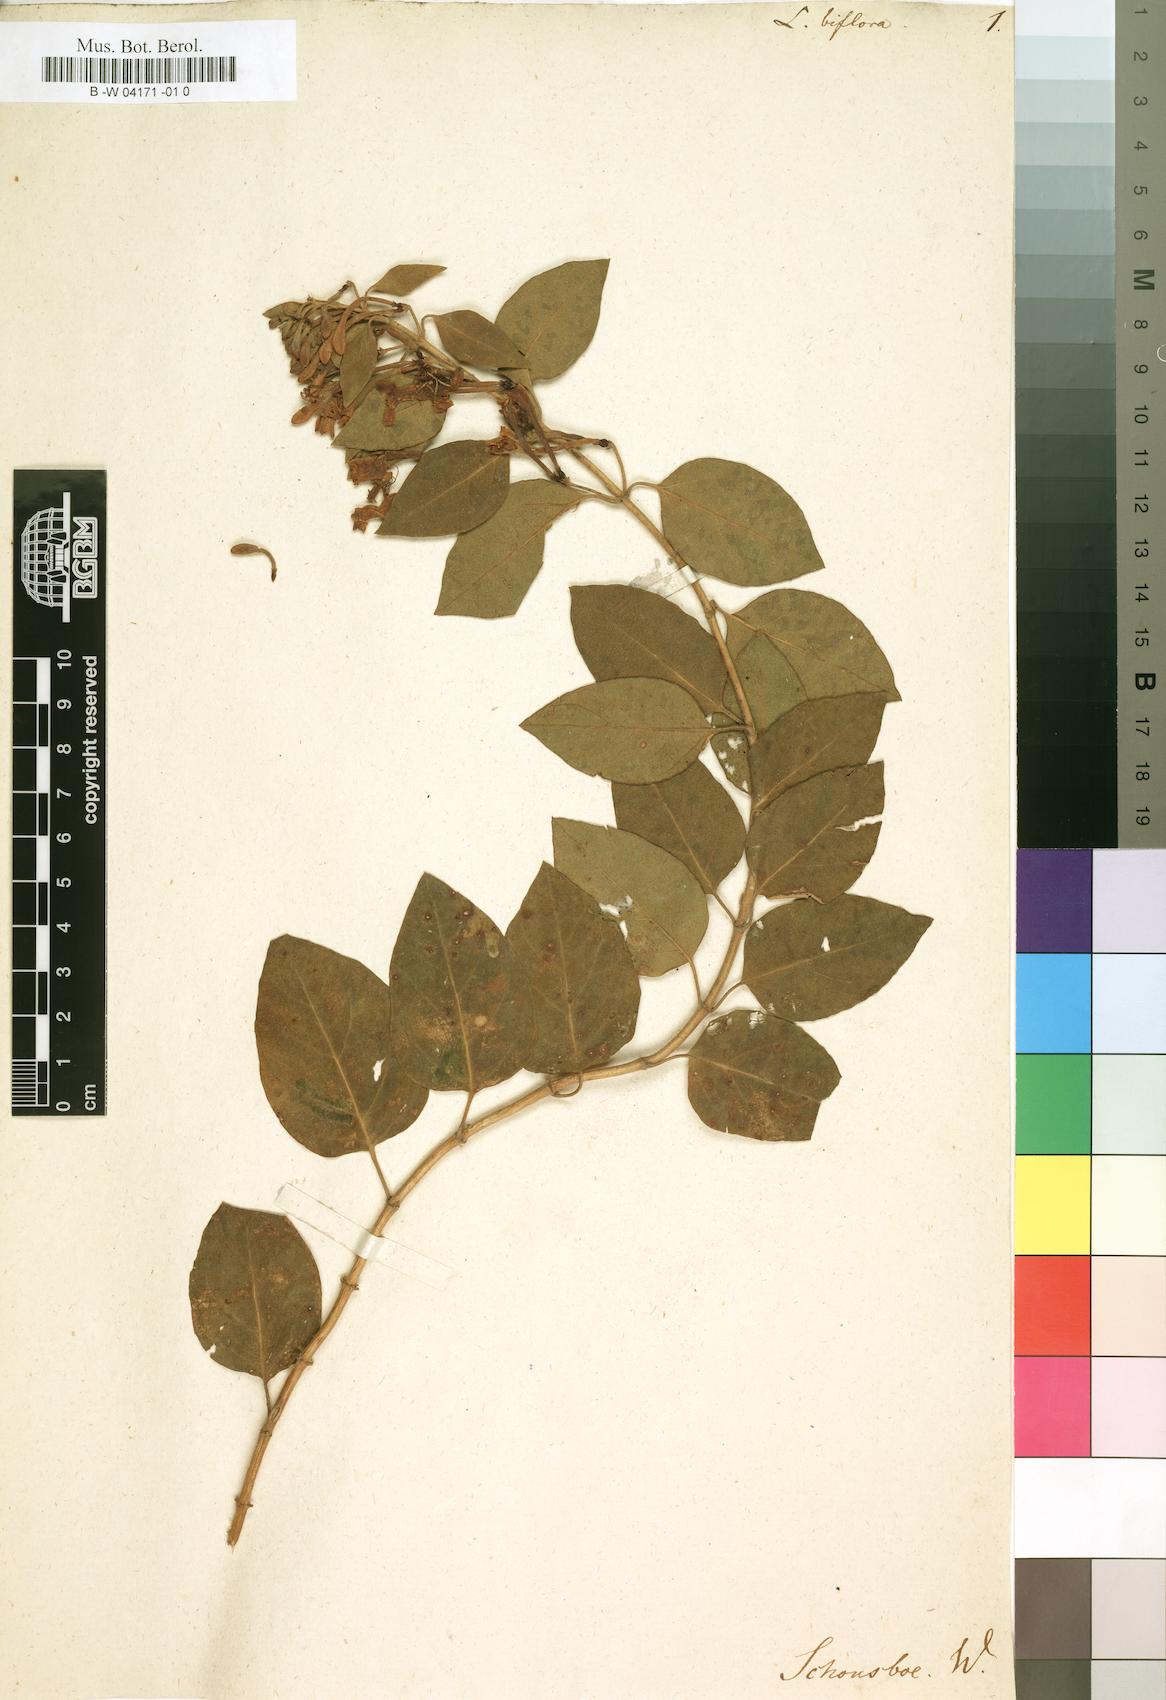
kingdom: Plantae
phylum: Tracheophyta
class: Magnoliopsida
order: Dipsacales
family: Caprifoliaceae
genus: Lonicera
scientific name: Lonicera biflora
